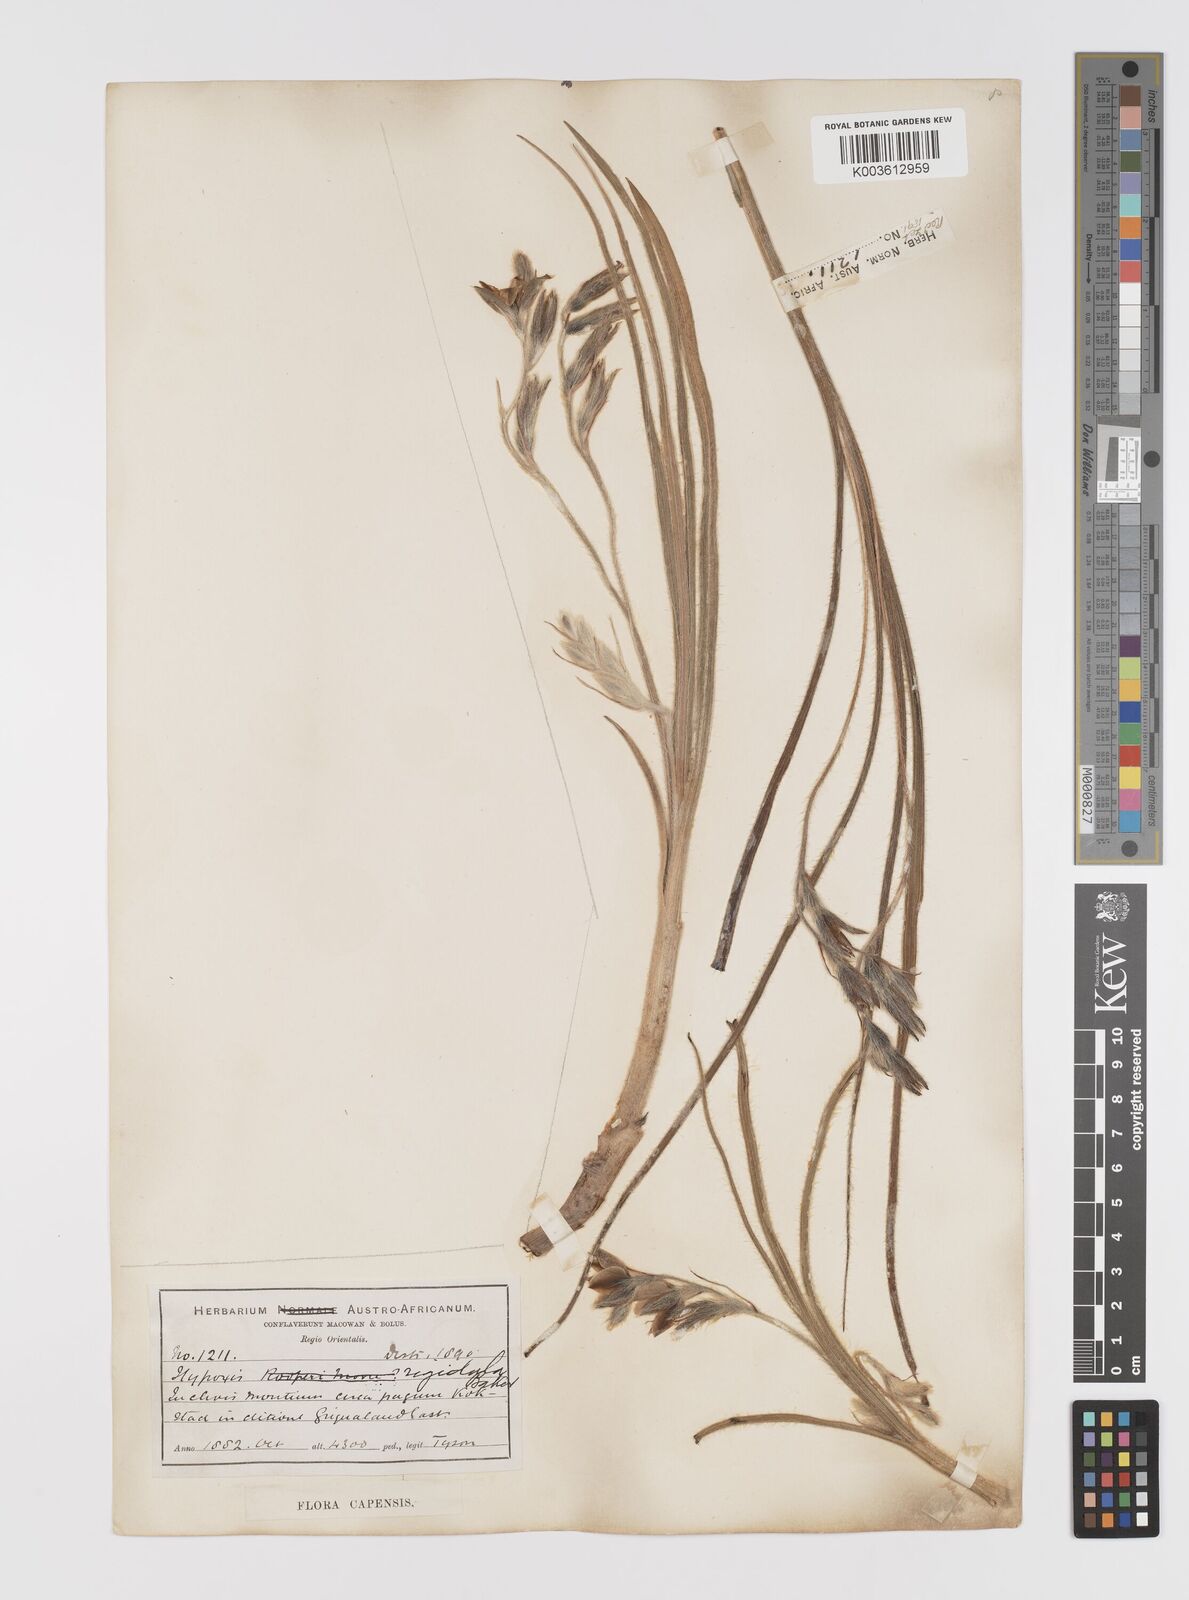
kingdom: Plantae
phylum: Tracheophyta
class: Liliopsida
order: Asparagales
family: Hypoxidaceae
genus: Hypoxis
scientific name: Hypoxis rigidula
